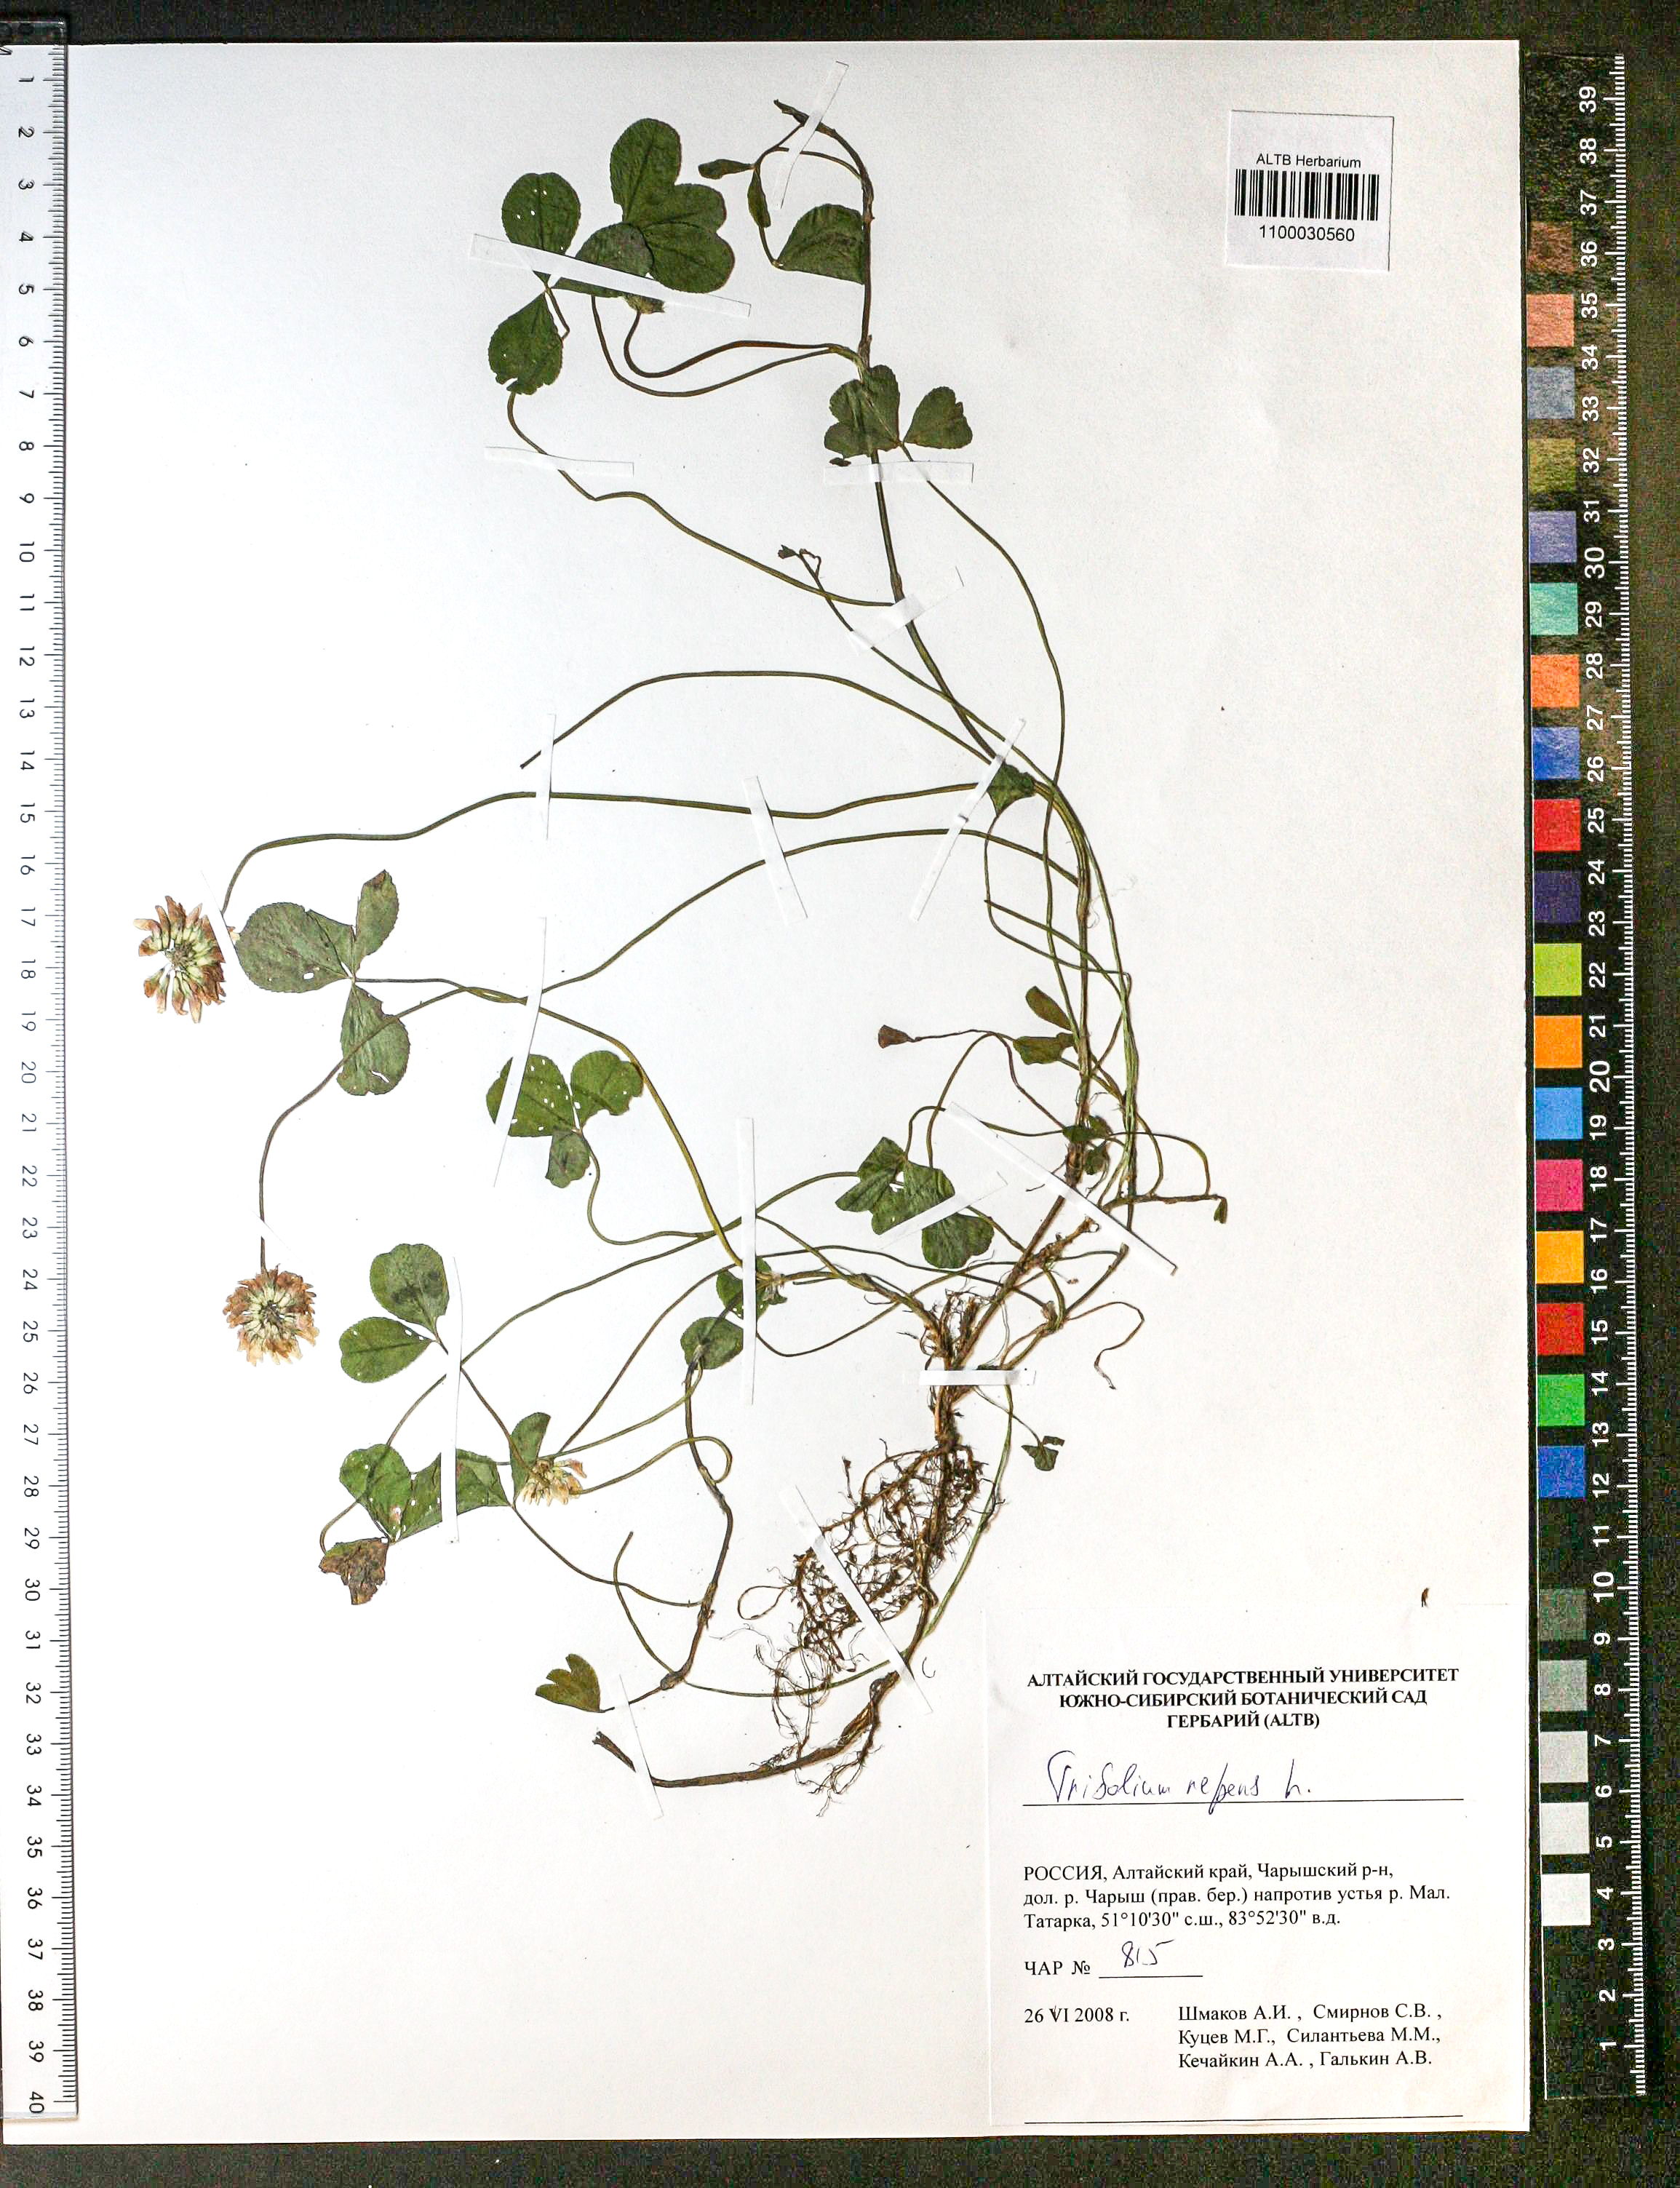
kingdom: Plantae
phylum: Tracheophyta
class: Magnoliopsida
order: Fabales
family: Fabaceae
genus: Trifolium
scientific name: Trifolium repens
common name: White clover
